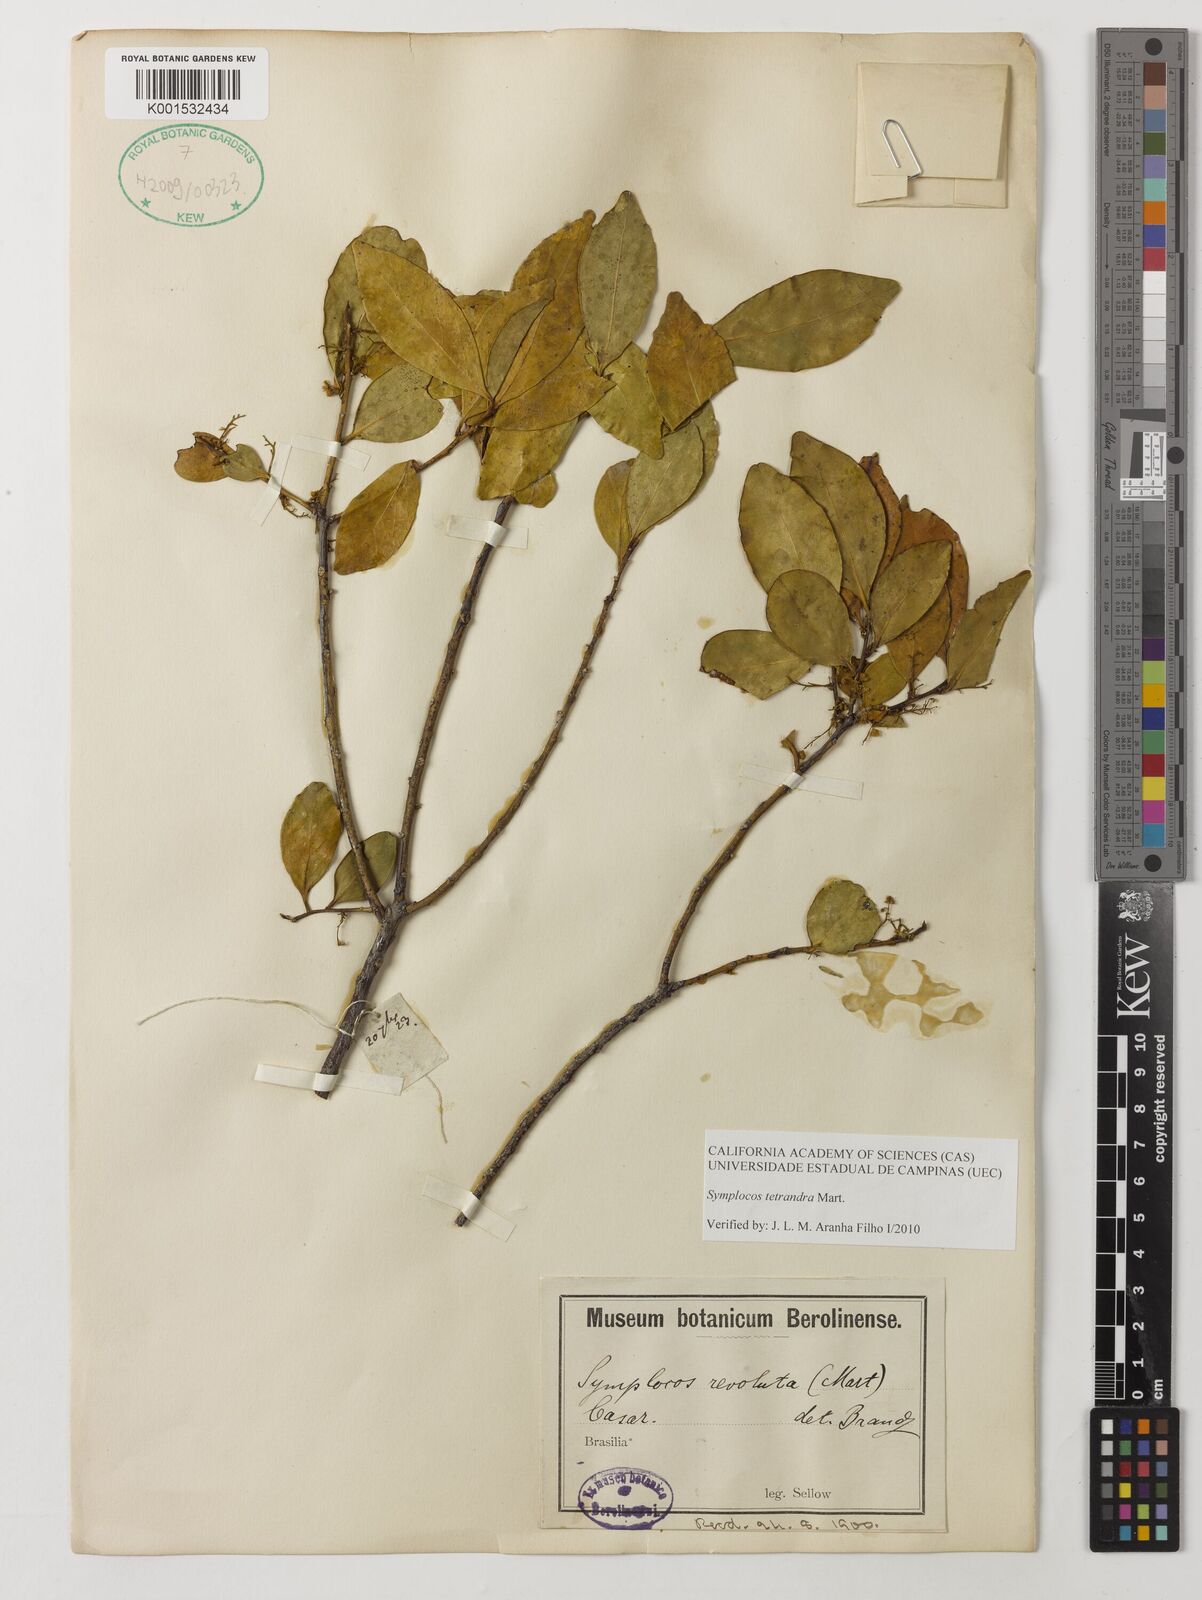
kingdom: Plantae
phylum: Tracheophyta
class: Magnoliopsida
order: Ericales
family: Symplocaceae
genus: Symplocos
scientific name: Symplocos tetrandra
